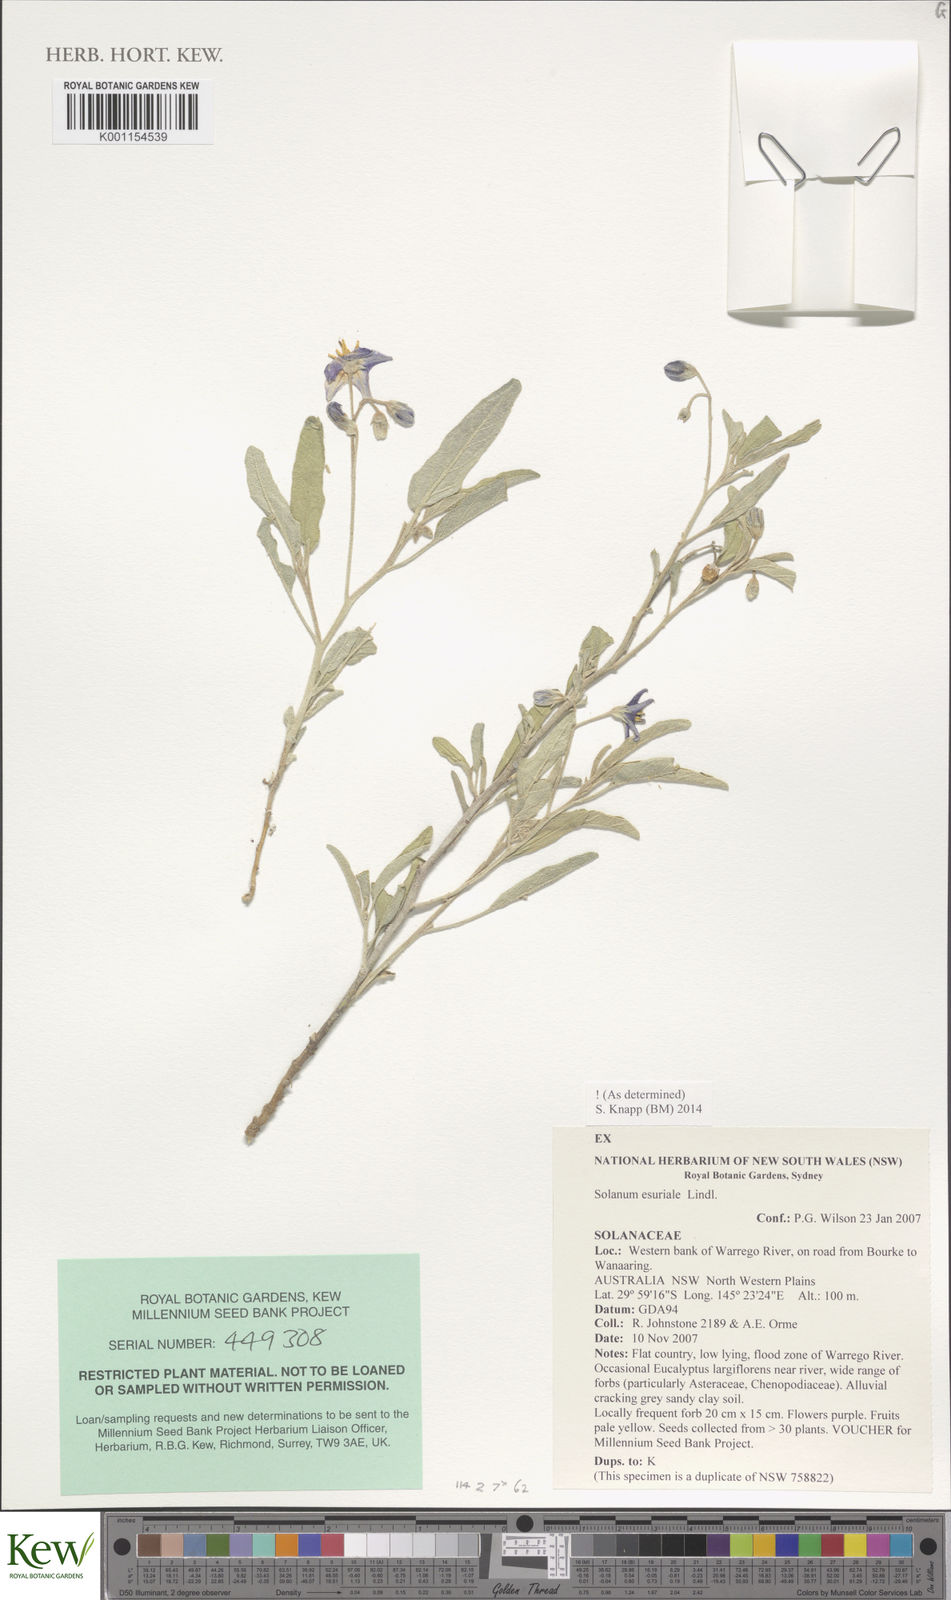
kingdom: Plantae
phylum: Tracheophyta
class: Magnoliopsida
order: Solanales
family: Solanaceae
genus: Solanum
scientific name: Solanum esuriale
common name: Wild tomato
